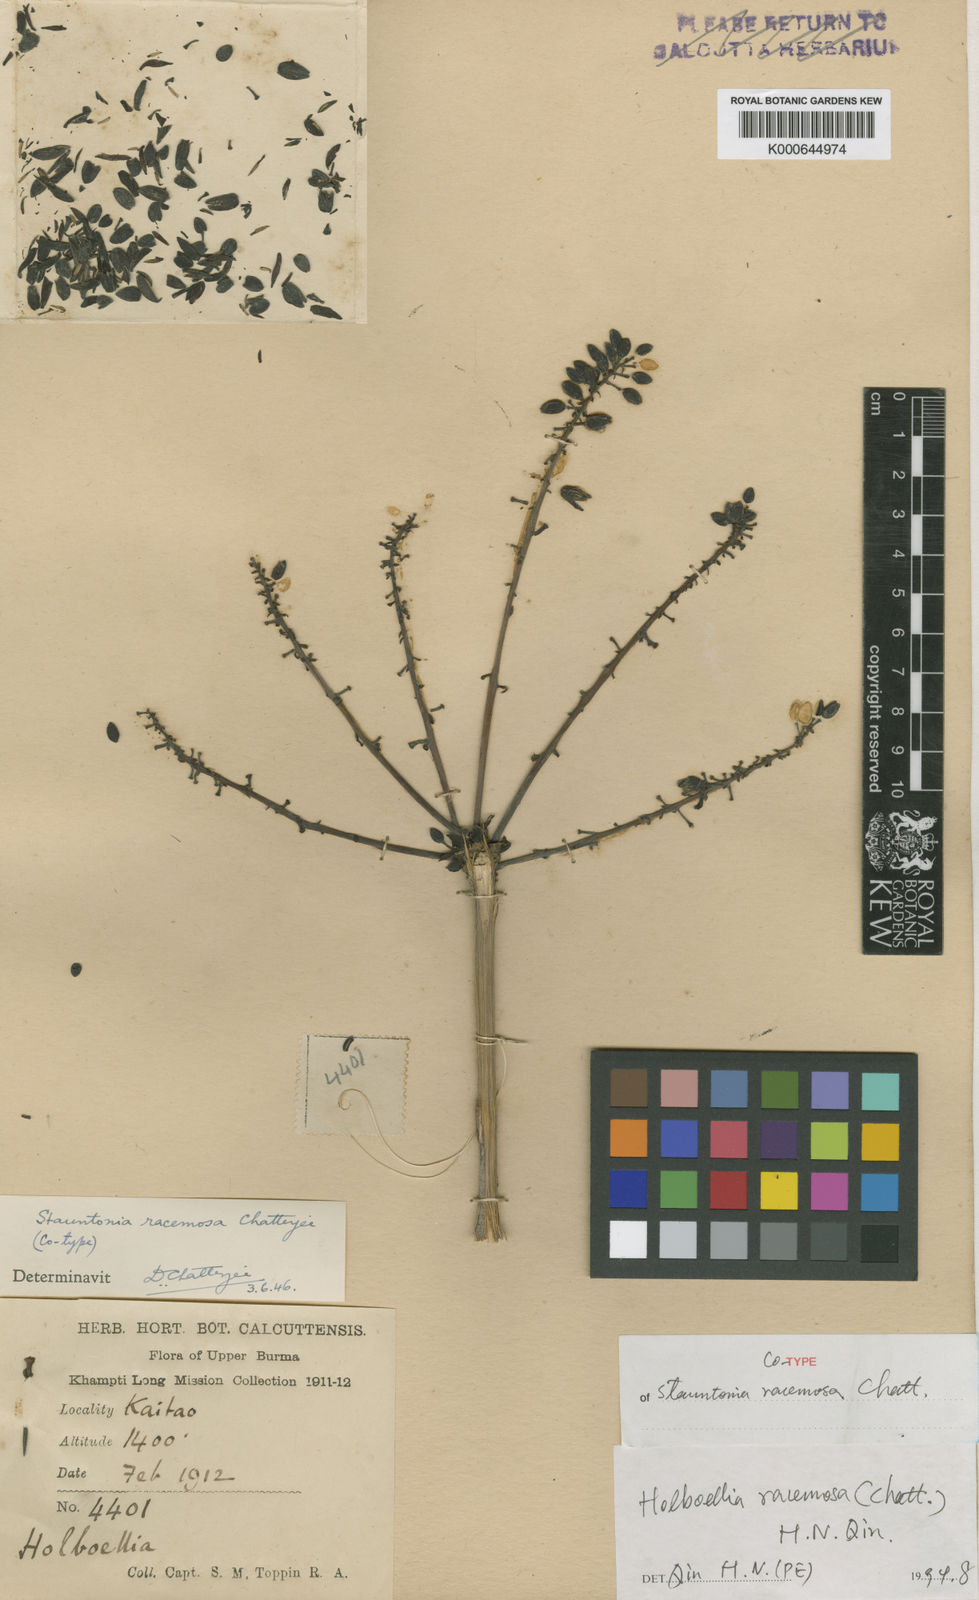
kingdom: Plantae
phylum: Tracheophyta
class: Magnoliopsida
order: Ranunculales
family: Lardizabalaceae
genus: Stauntonia
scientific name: Stauntonia filamentosa
